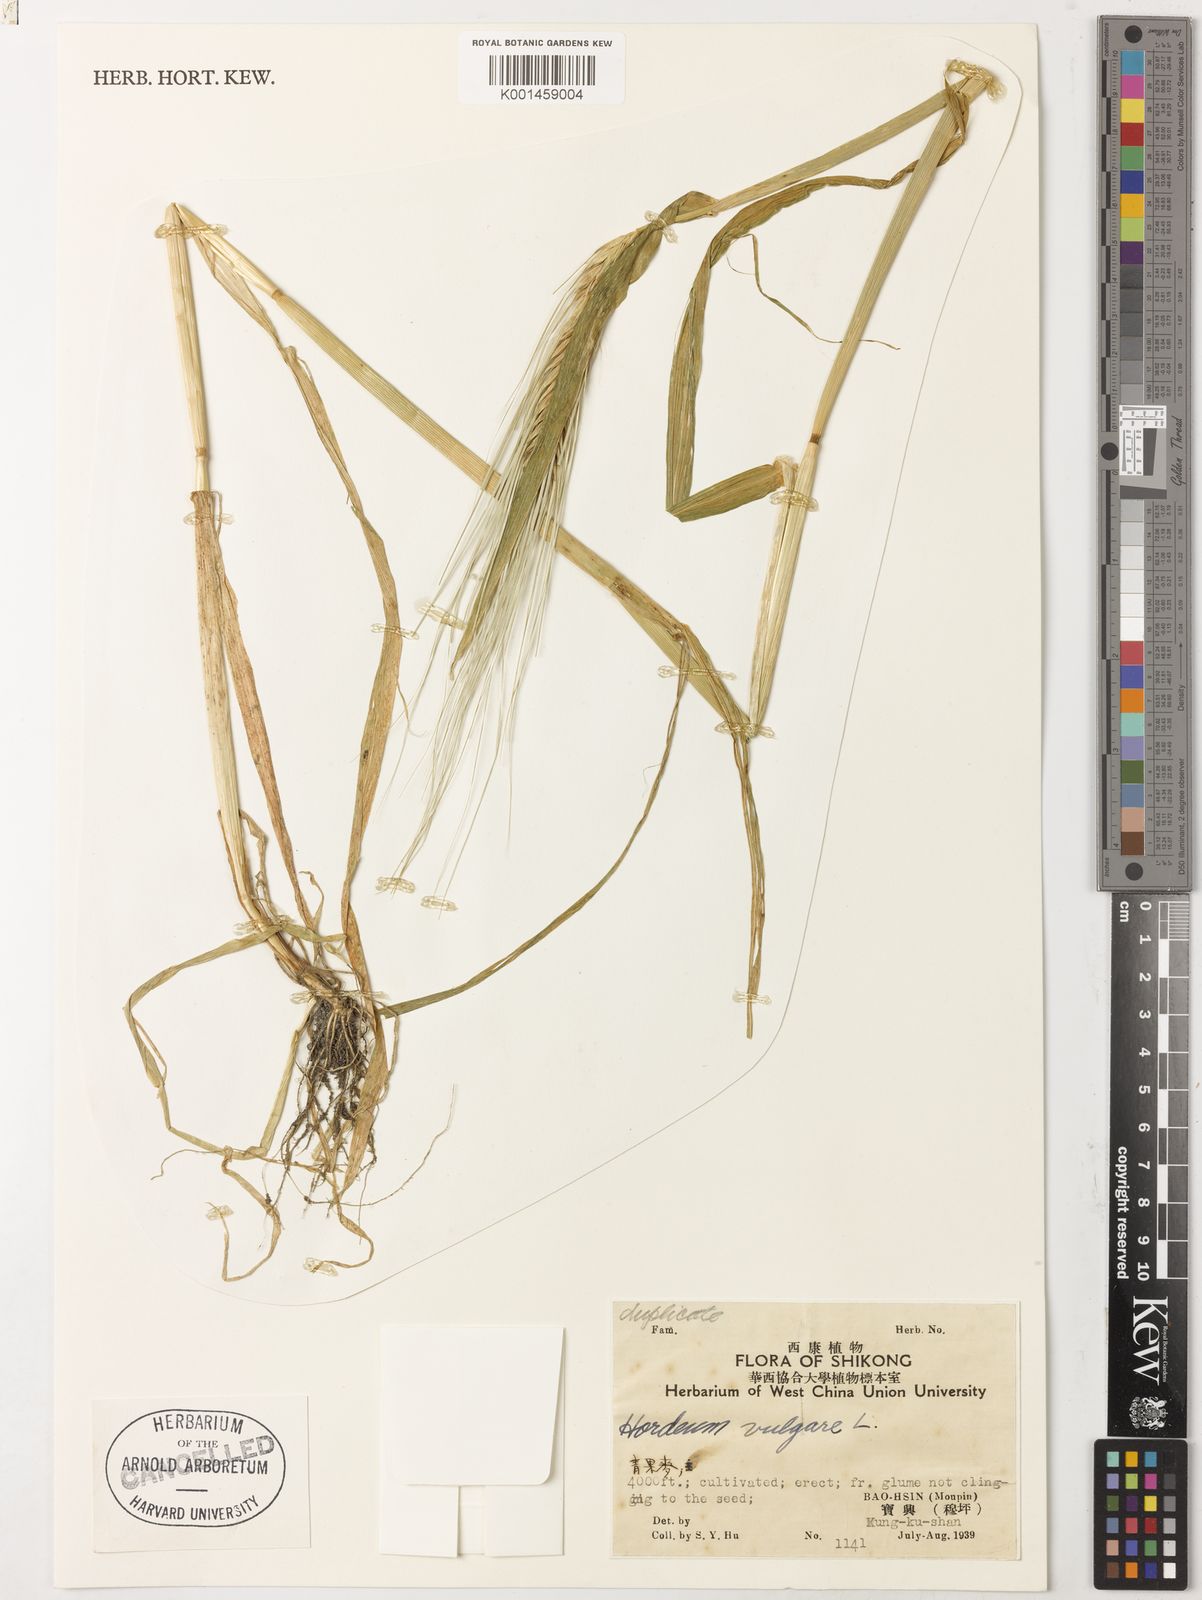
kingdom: Plantae
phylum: Tracheophyta
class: Liliopsida
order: Poales
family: Poaceae
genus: Hordeum
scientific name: Hordeum vulgare
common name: Common barley
